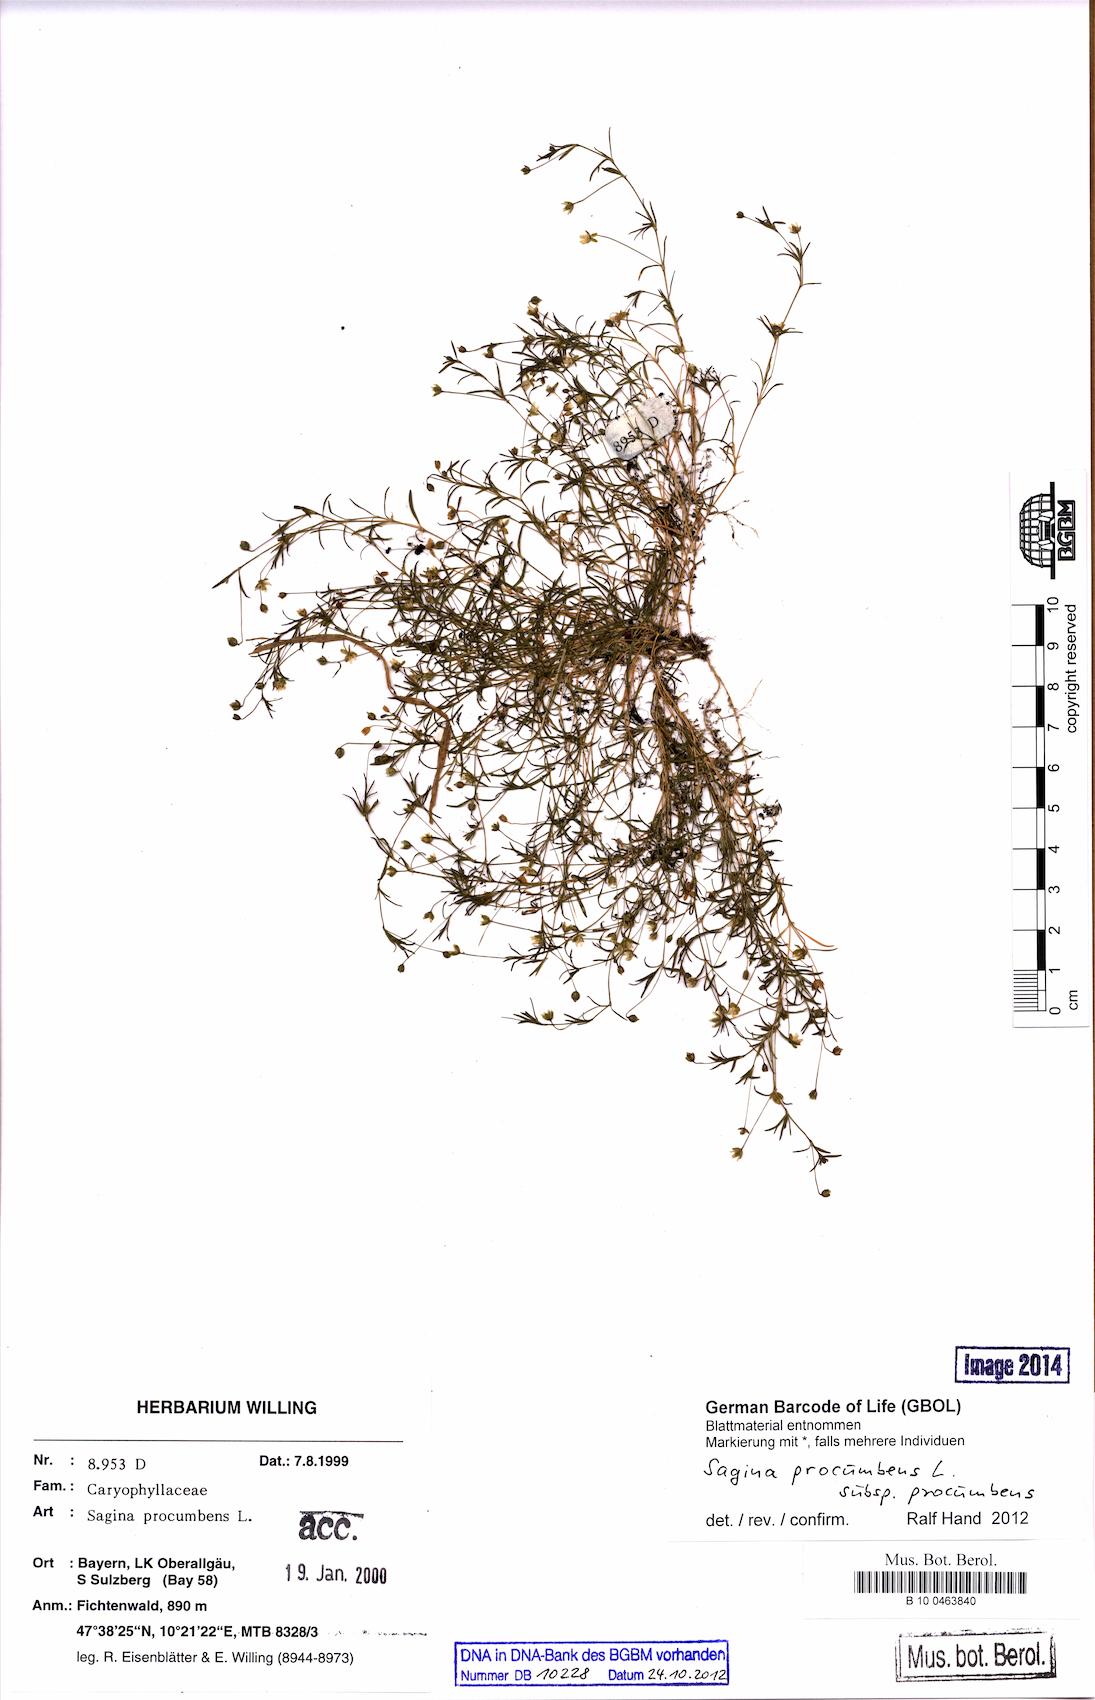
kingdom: Plantae
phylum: Tracheophyta
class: Magnoliopsida
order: Caryophyllales
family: Caryophyllaceae
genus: Sagina
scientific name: Sagina procumbens
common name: Procumbent pearlwort
